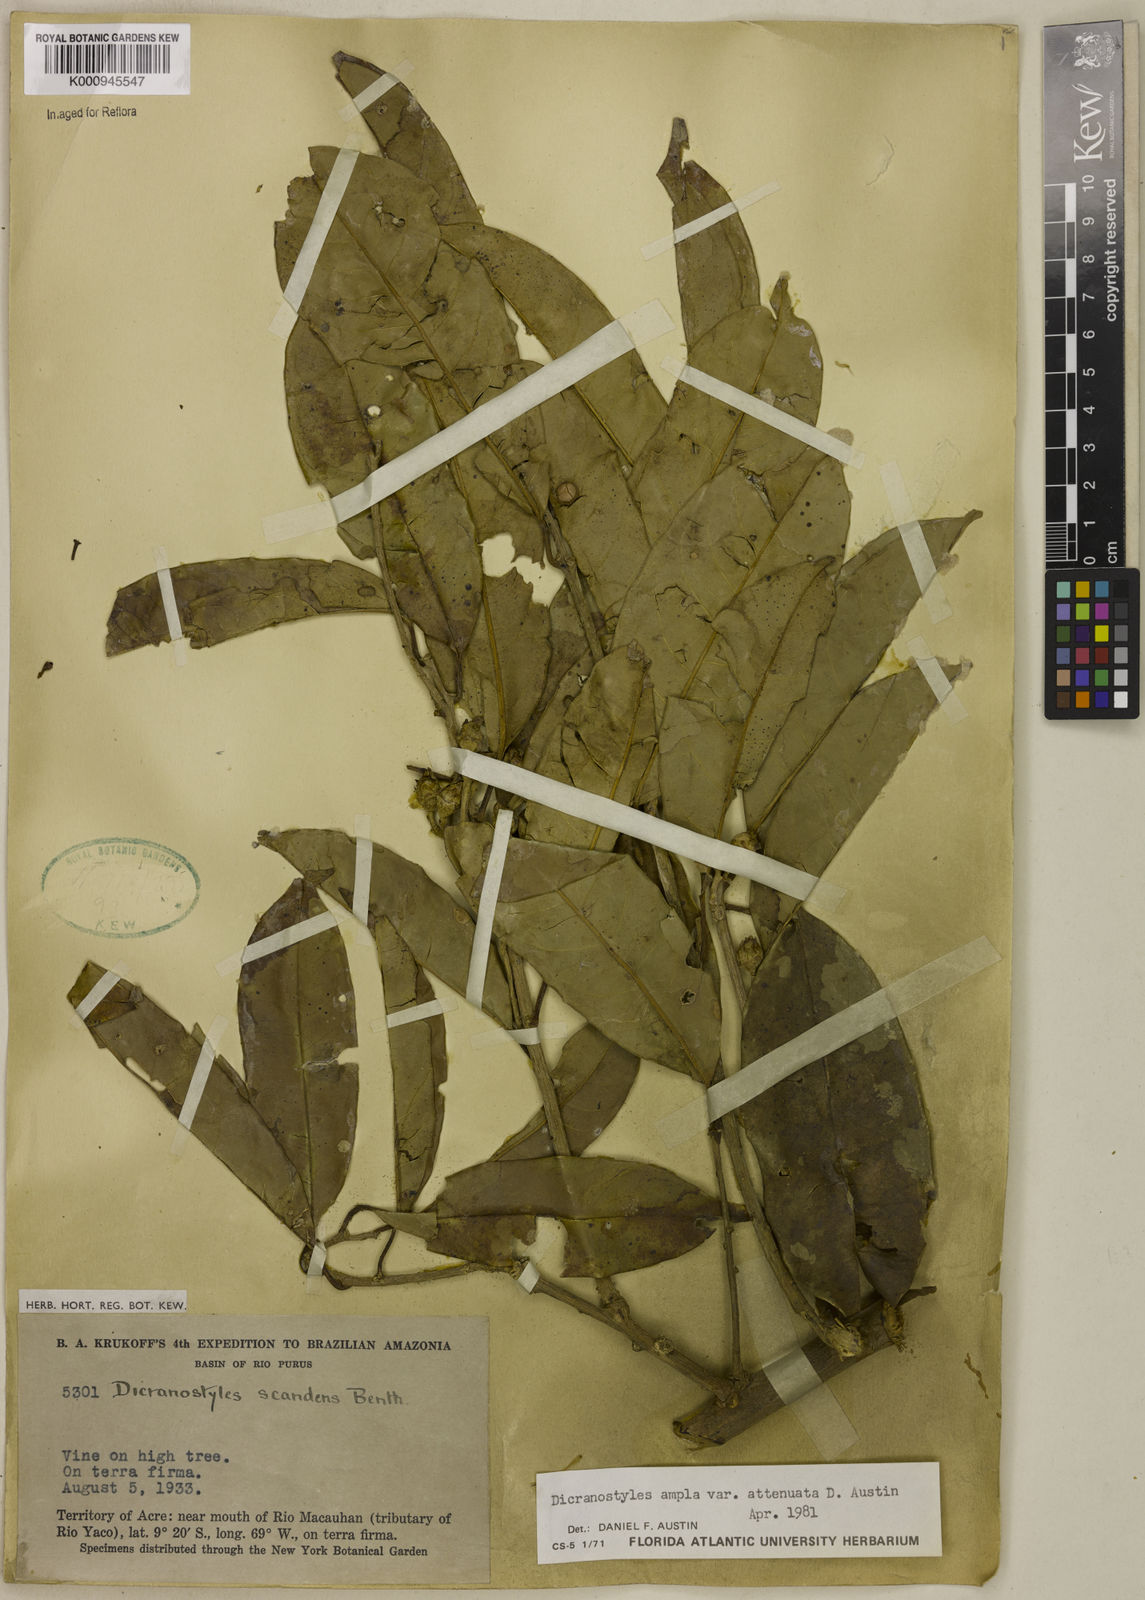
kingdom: Plantae
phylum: Tracheophyta
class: Magnoliopsida
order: Solanales
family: Convolvulaceae
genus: Dicranostyles
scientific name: Dicranostyles ampla
